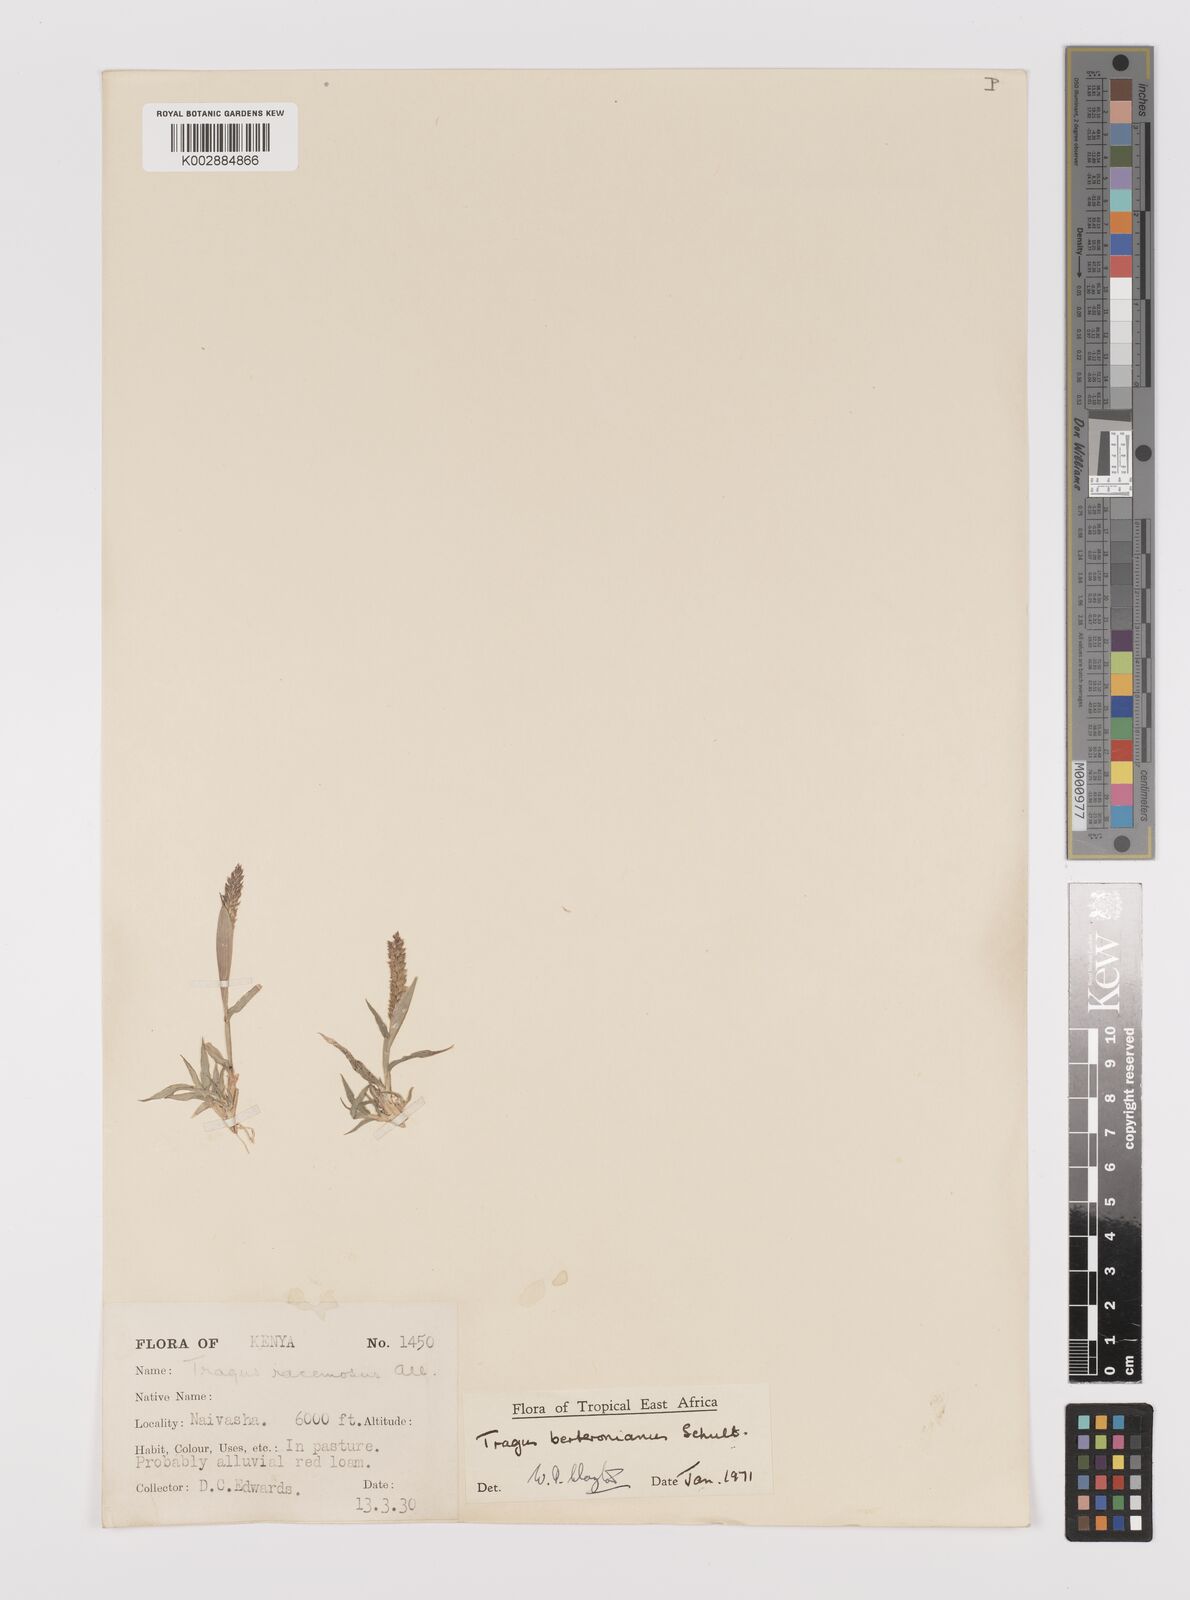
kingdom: Plantae
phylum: Tracheophyta
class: Liliopsida
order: Poales
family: Poaceae
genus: Tragus
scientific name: Tragus berteronianus
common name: African bur-grass
